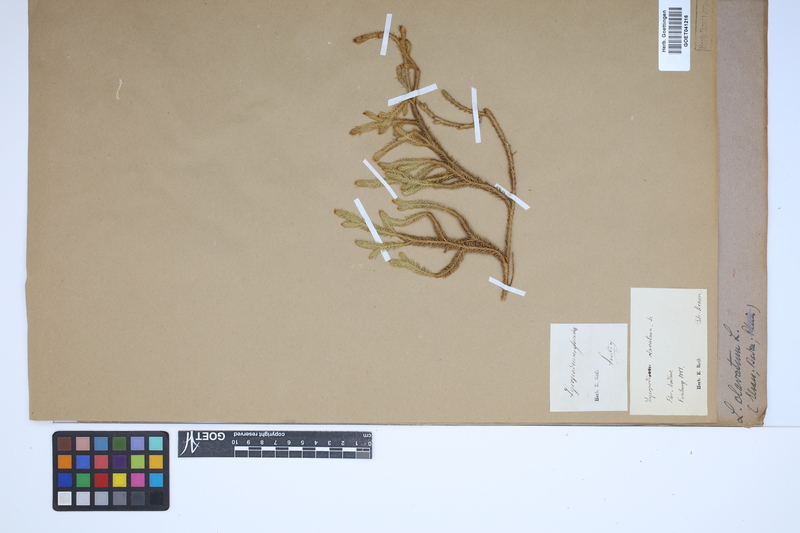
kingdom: Plantae
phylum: Tracheophyta
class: Lycopodiopsida
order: Lycopodiales
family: Lycopodiaceae
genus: Lycopodium
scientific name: Lycopodium clavatum
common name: Stag's-horn clubmoss
